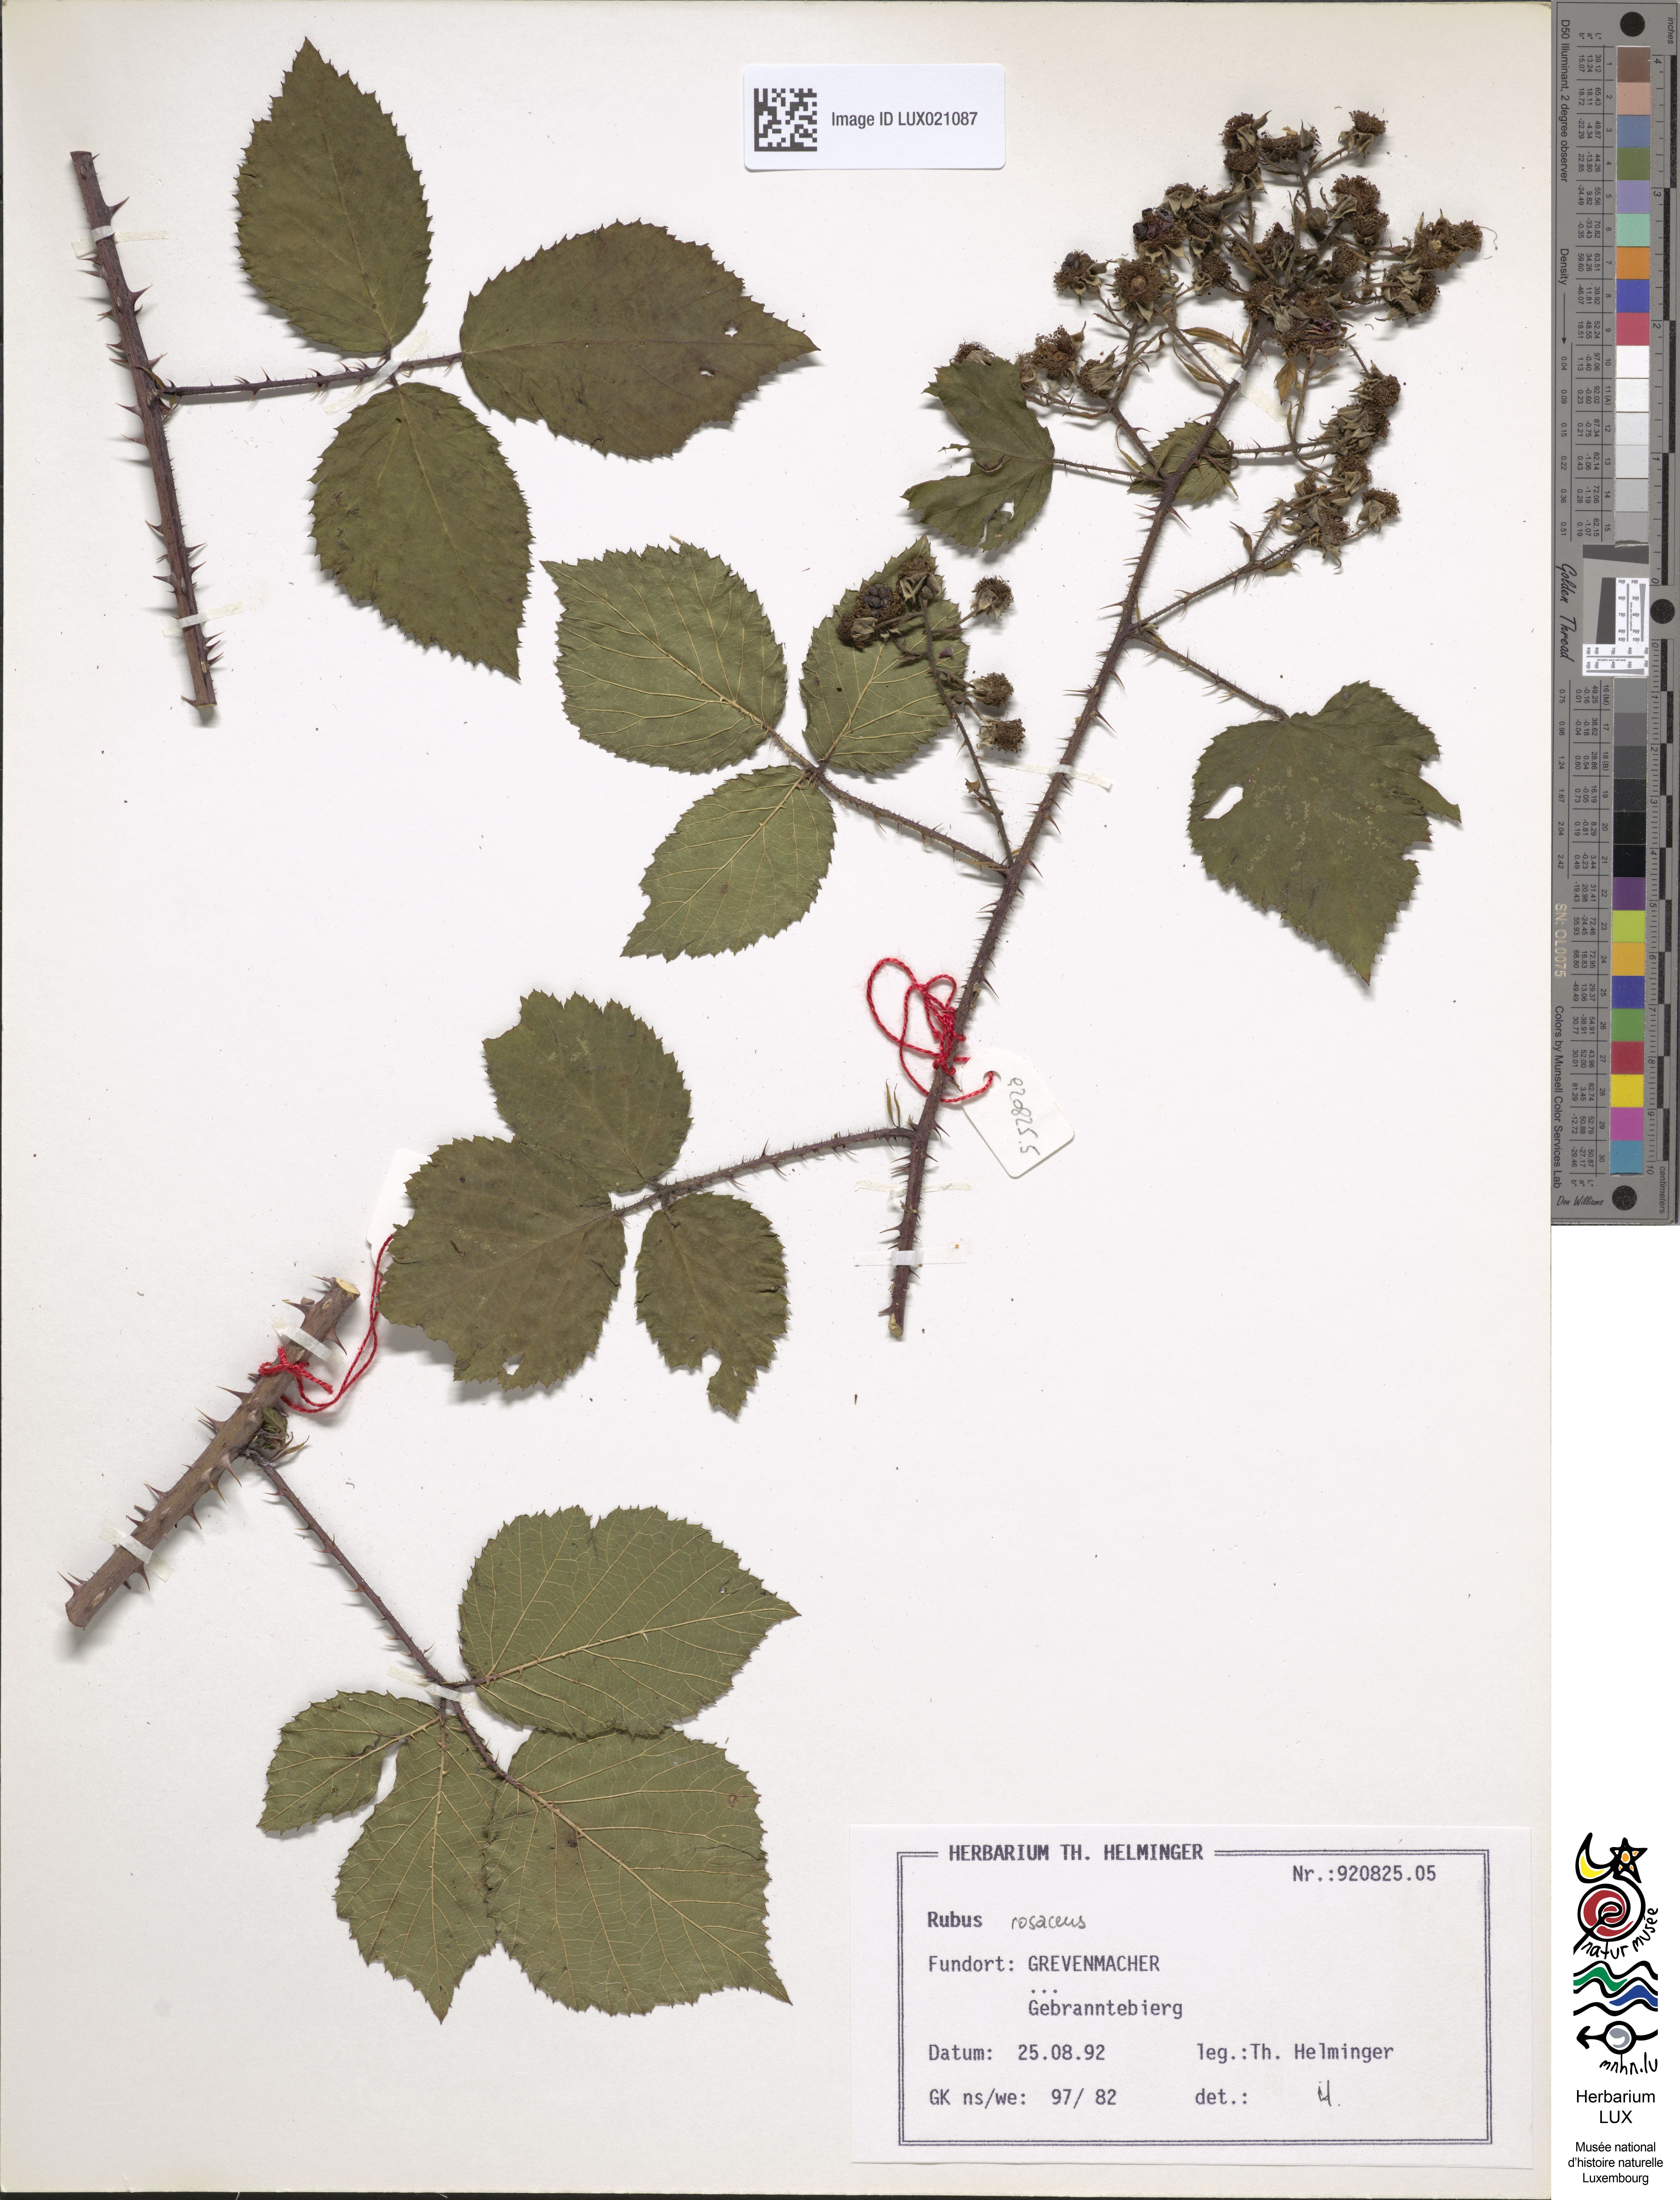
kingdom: Plantae
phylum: Tracheophyta
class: Magnoliopsida
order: Rosales
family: Rosaceae
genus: Rubus
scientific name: Rubus rosaceus
